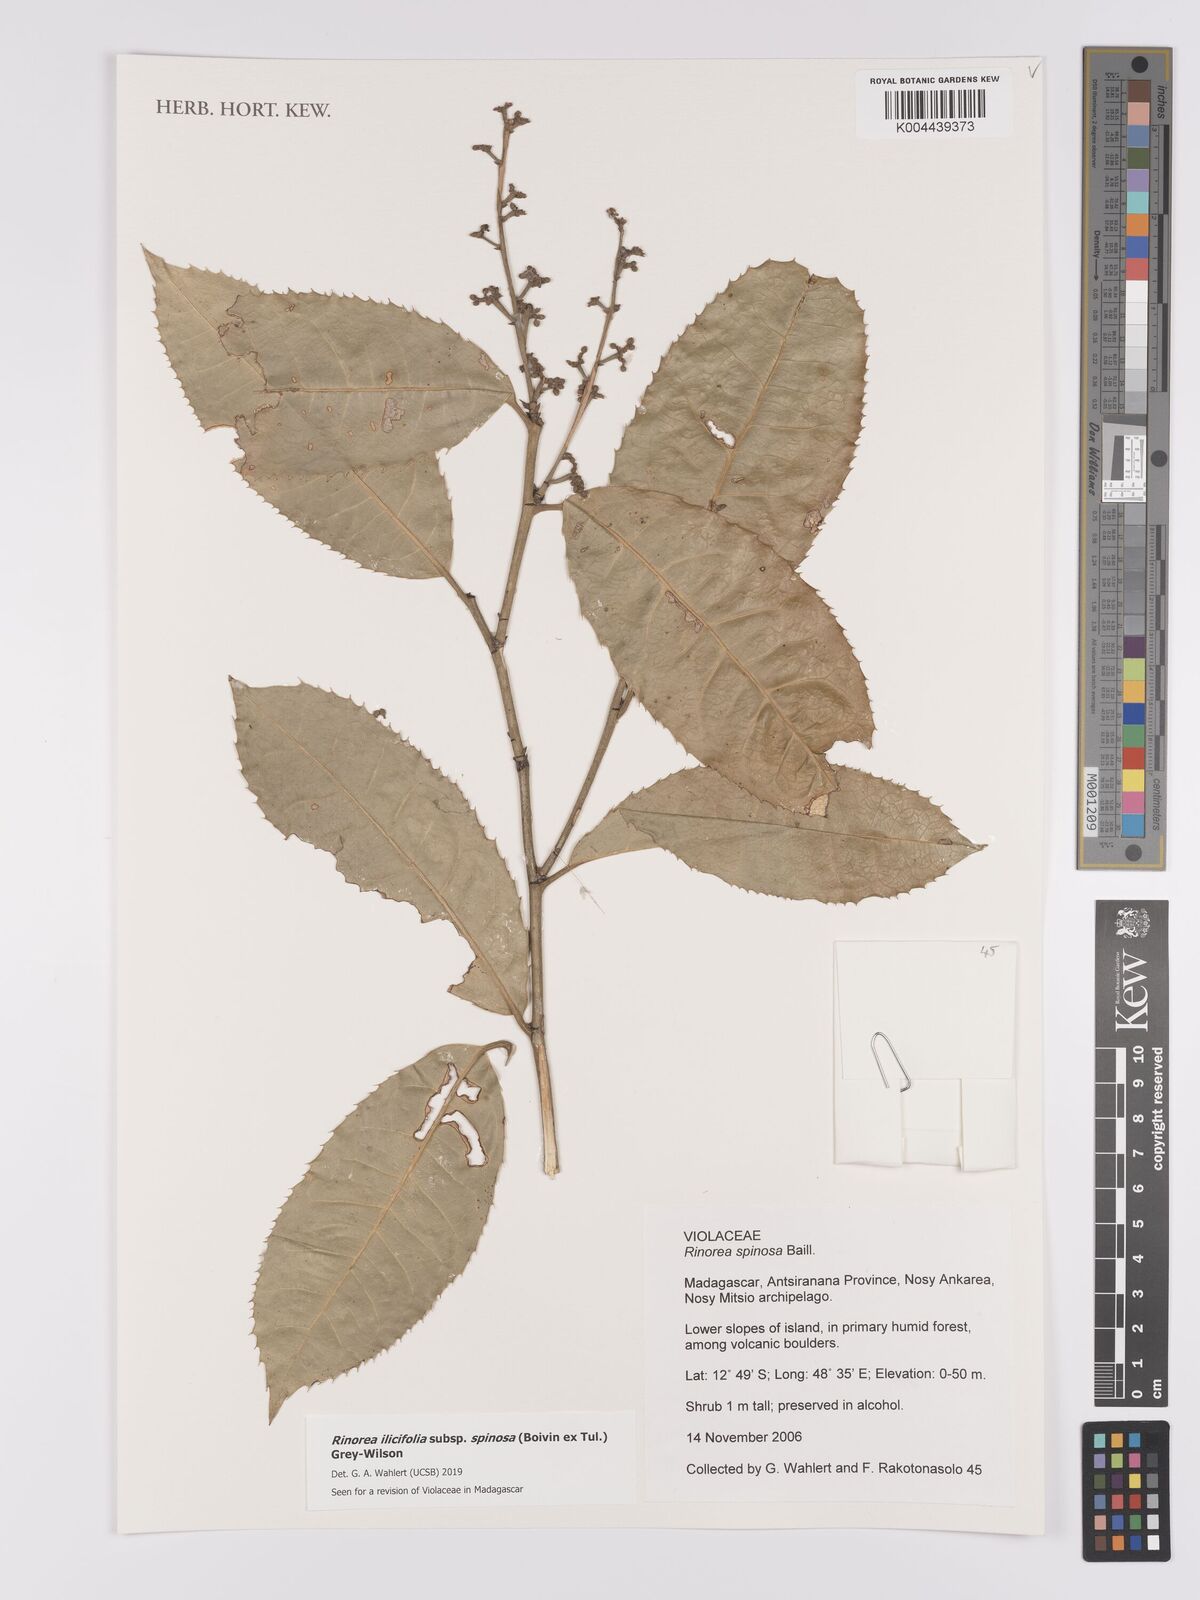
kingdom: Plantae
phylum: Tracheophyta
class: Magnoliopsida
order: Malpighiales
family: Violaceae
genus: Rinorea
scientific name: Rinorea spinosa
